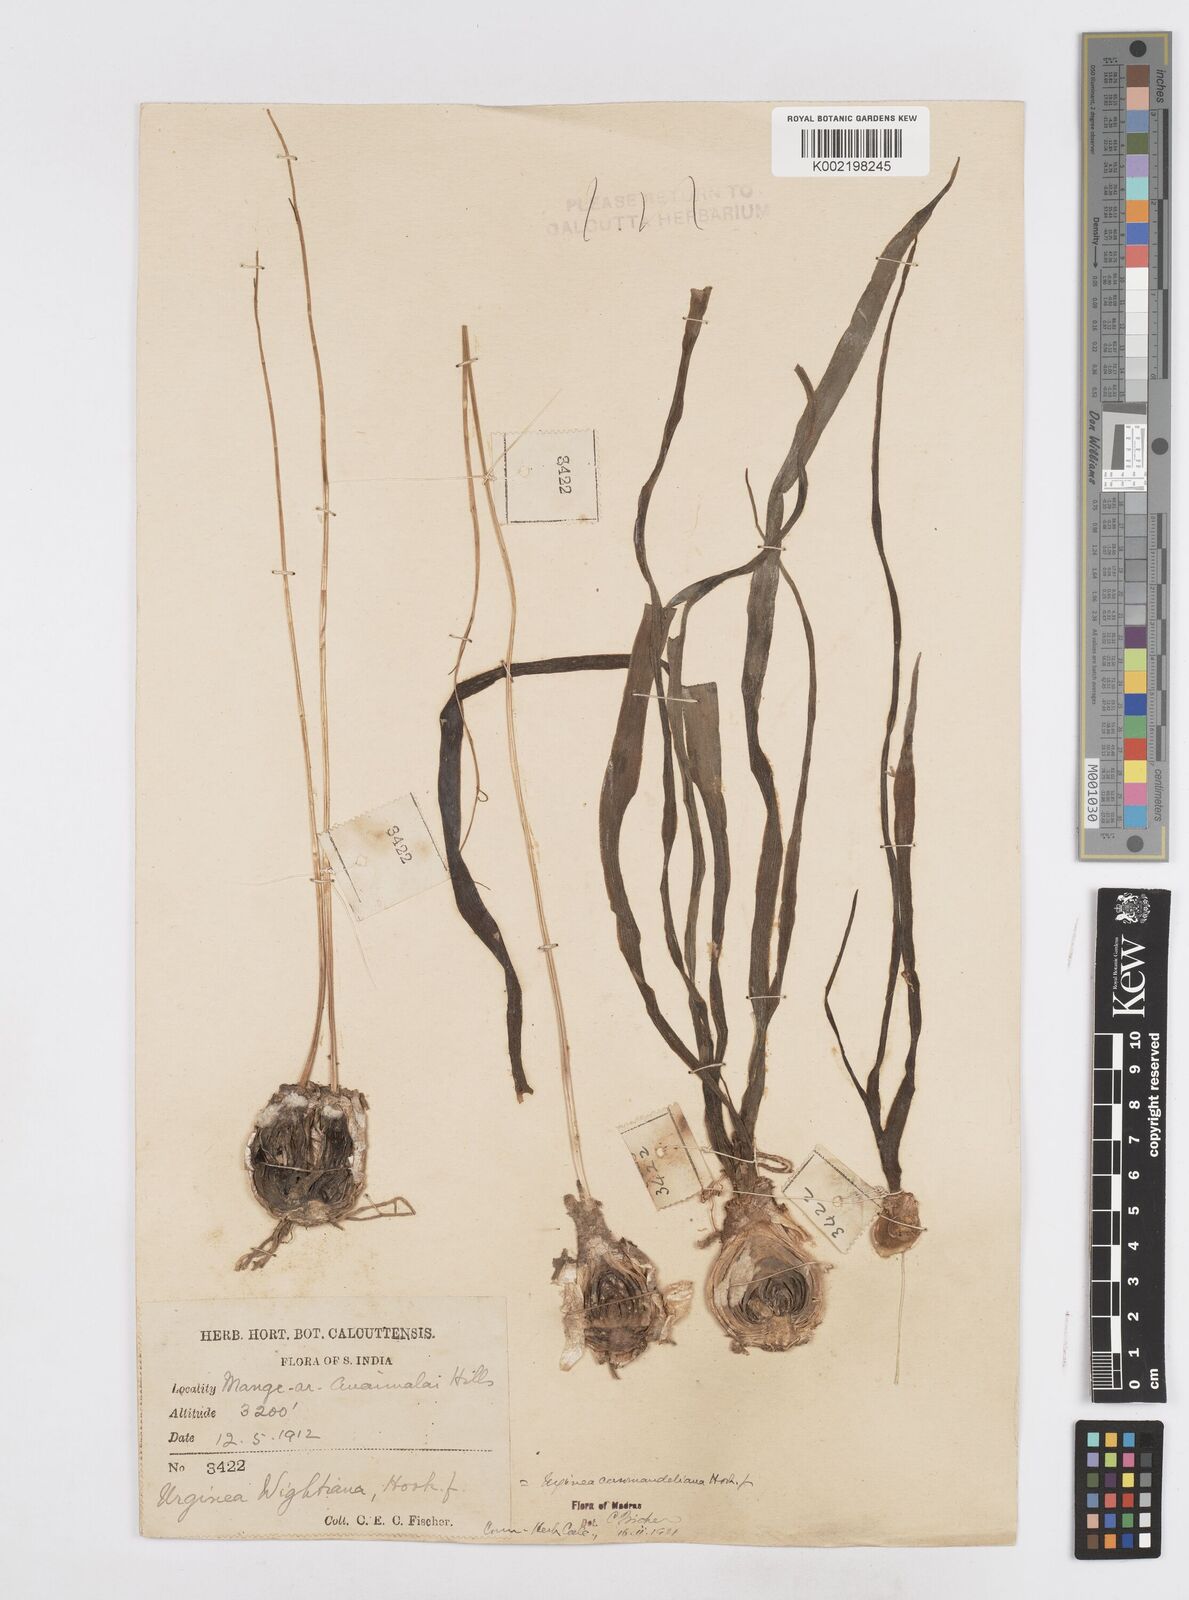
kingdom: Plantae
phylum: Tracheophyta
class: Liliopsida
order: Asparagales
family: Asparagaceae
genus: Drimia
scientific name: Drimia coromandeliana
